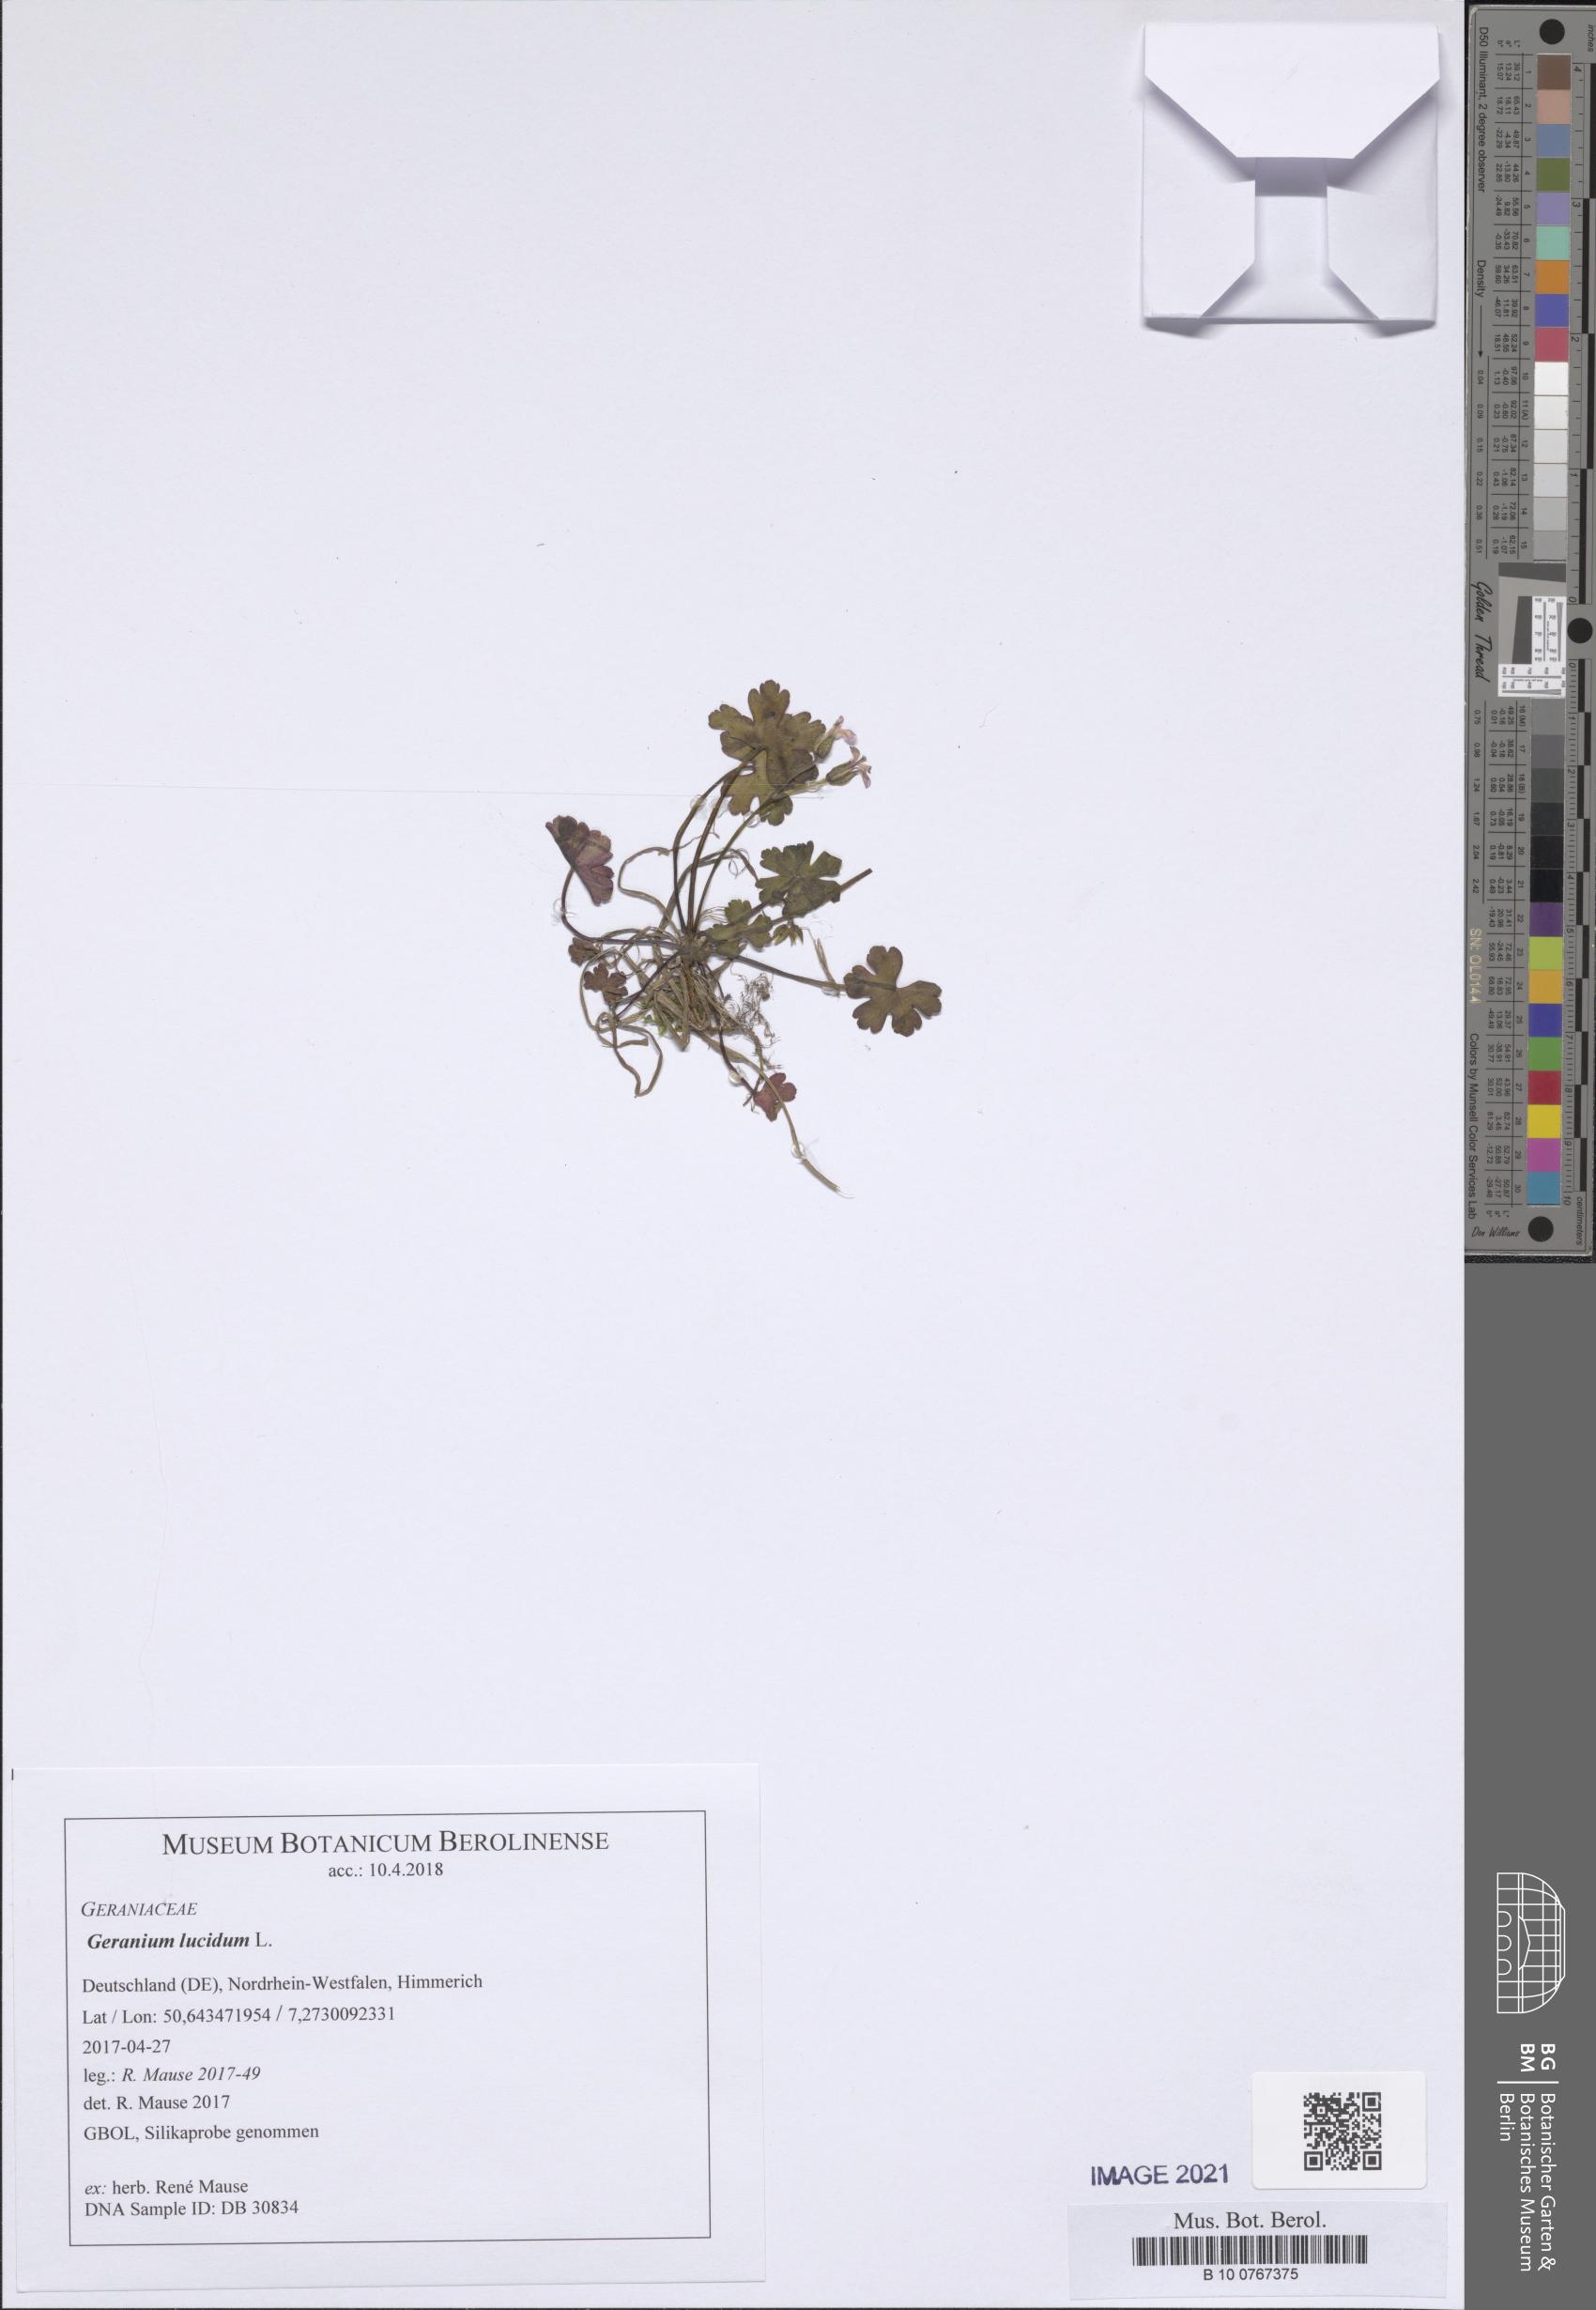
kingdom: Plantae
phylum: Tracheophyta
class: Magnoliopsida
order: Geraniales
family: Geraniaceae
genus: Geranium
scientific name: Geranium lucidum
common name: Shining crane's-bill
